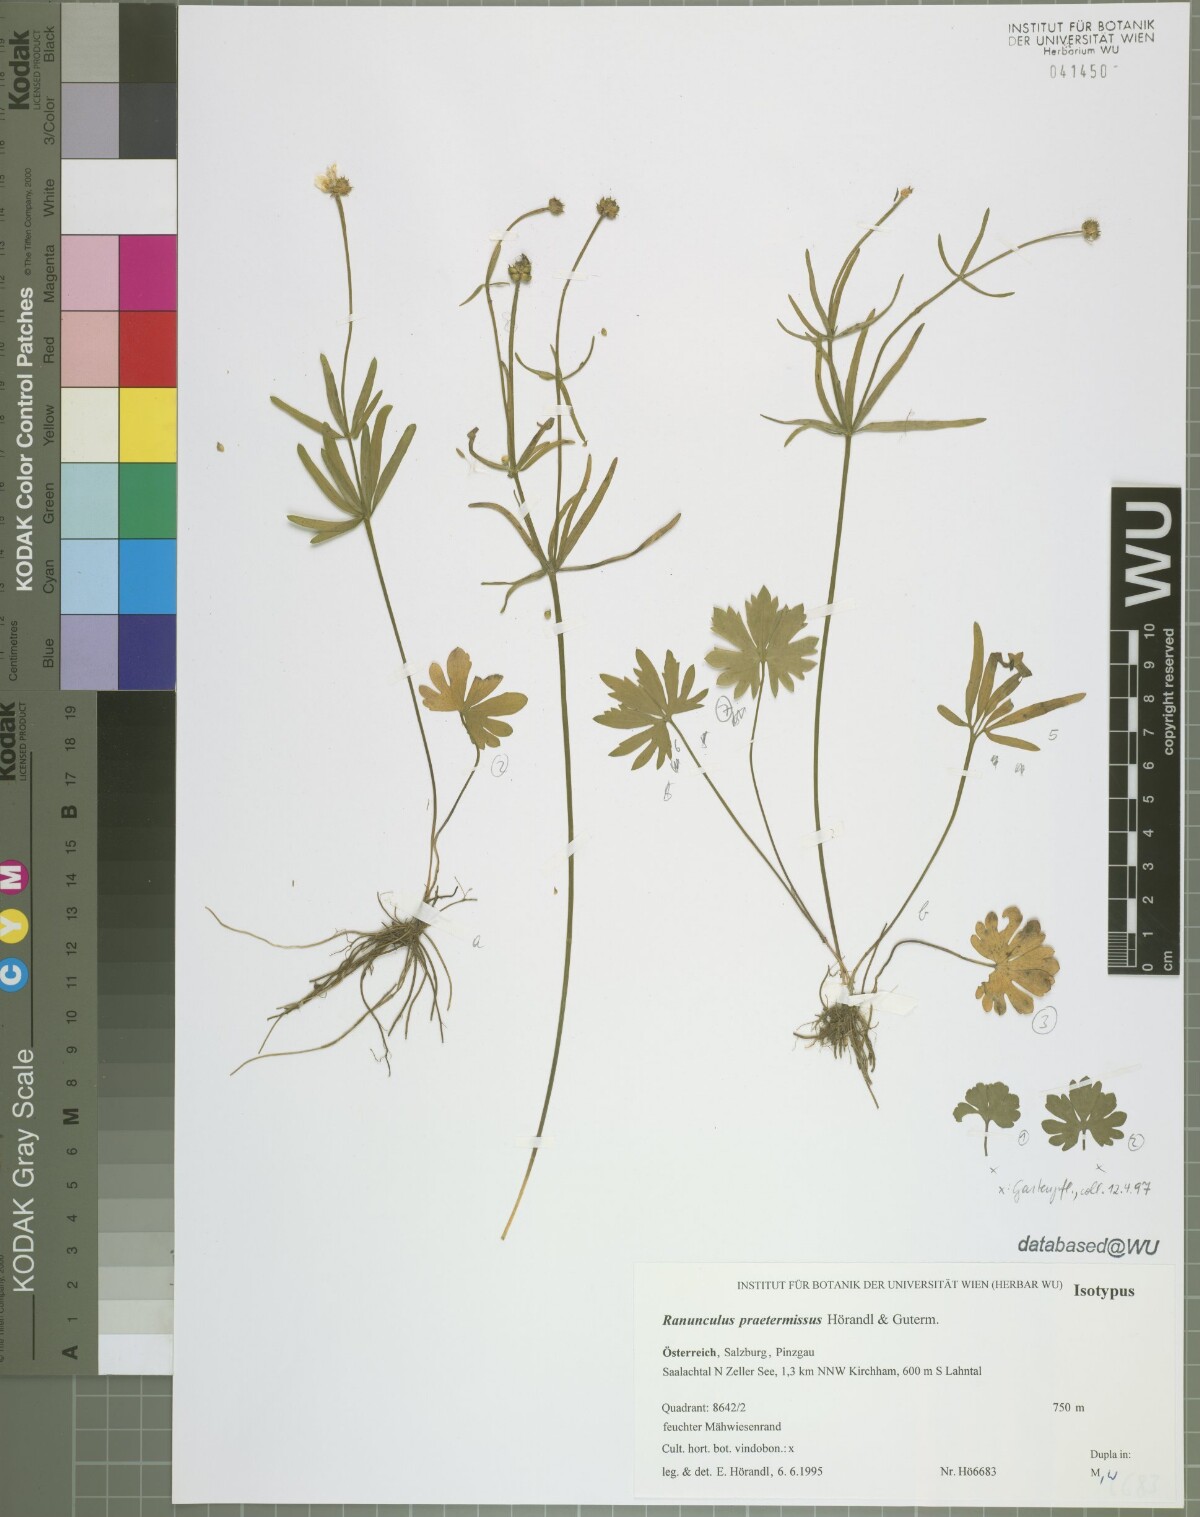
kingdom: Plantae
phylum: Tracheophyta
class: Magnoliopsida
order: Ranunculales
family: Ranunculaceae
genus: Ranunculus
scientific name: Ranunculus praetermissus
